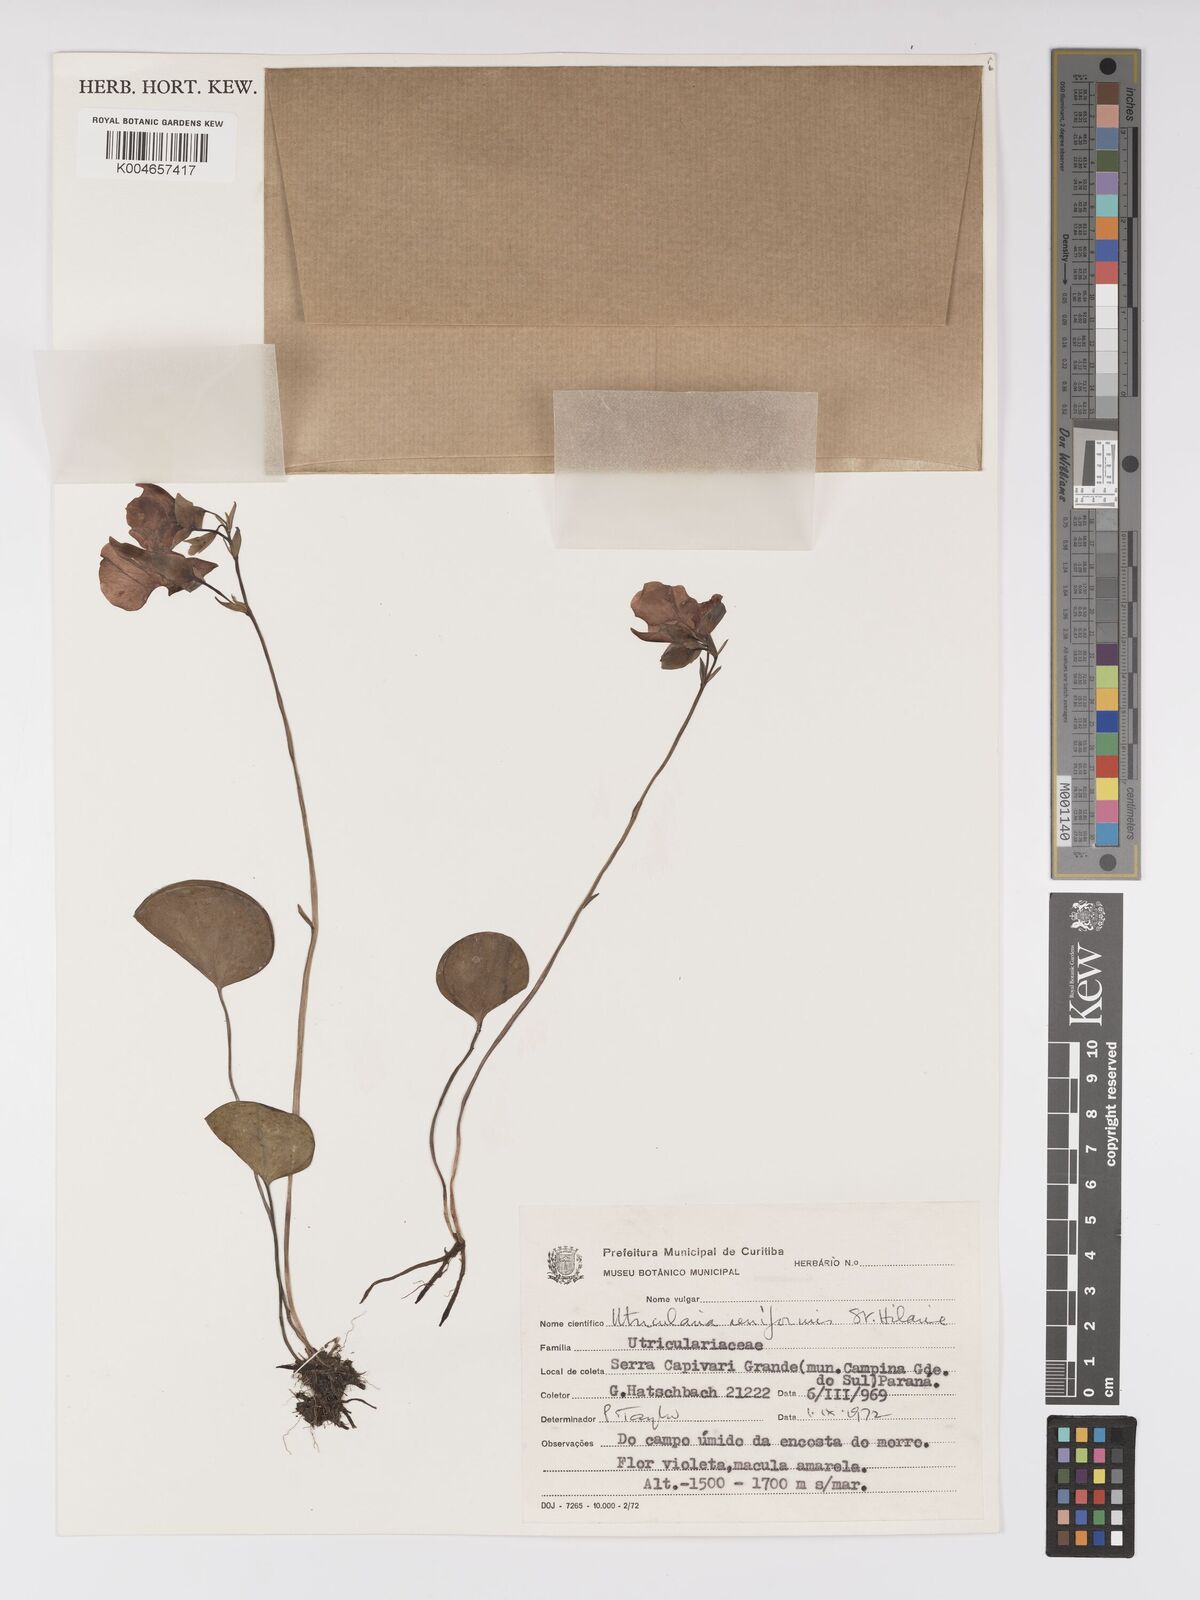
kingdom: Plantae
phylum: Tracheophyta
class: Magnoliopsida
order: Lamiales
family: Lentibulariaceae
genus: Utricularia
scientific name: Utricularia reniformis
